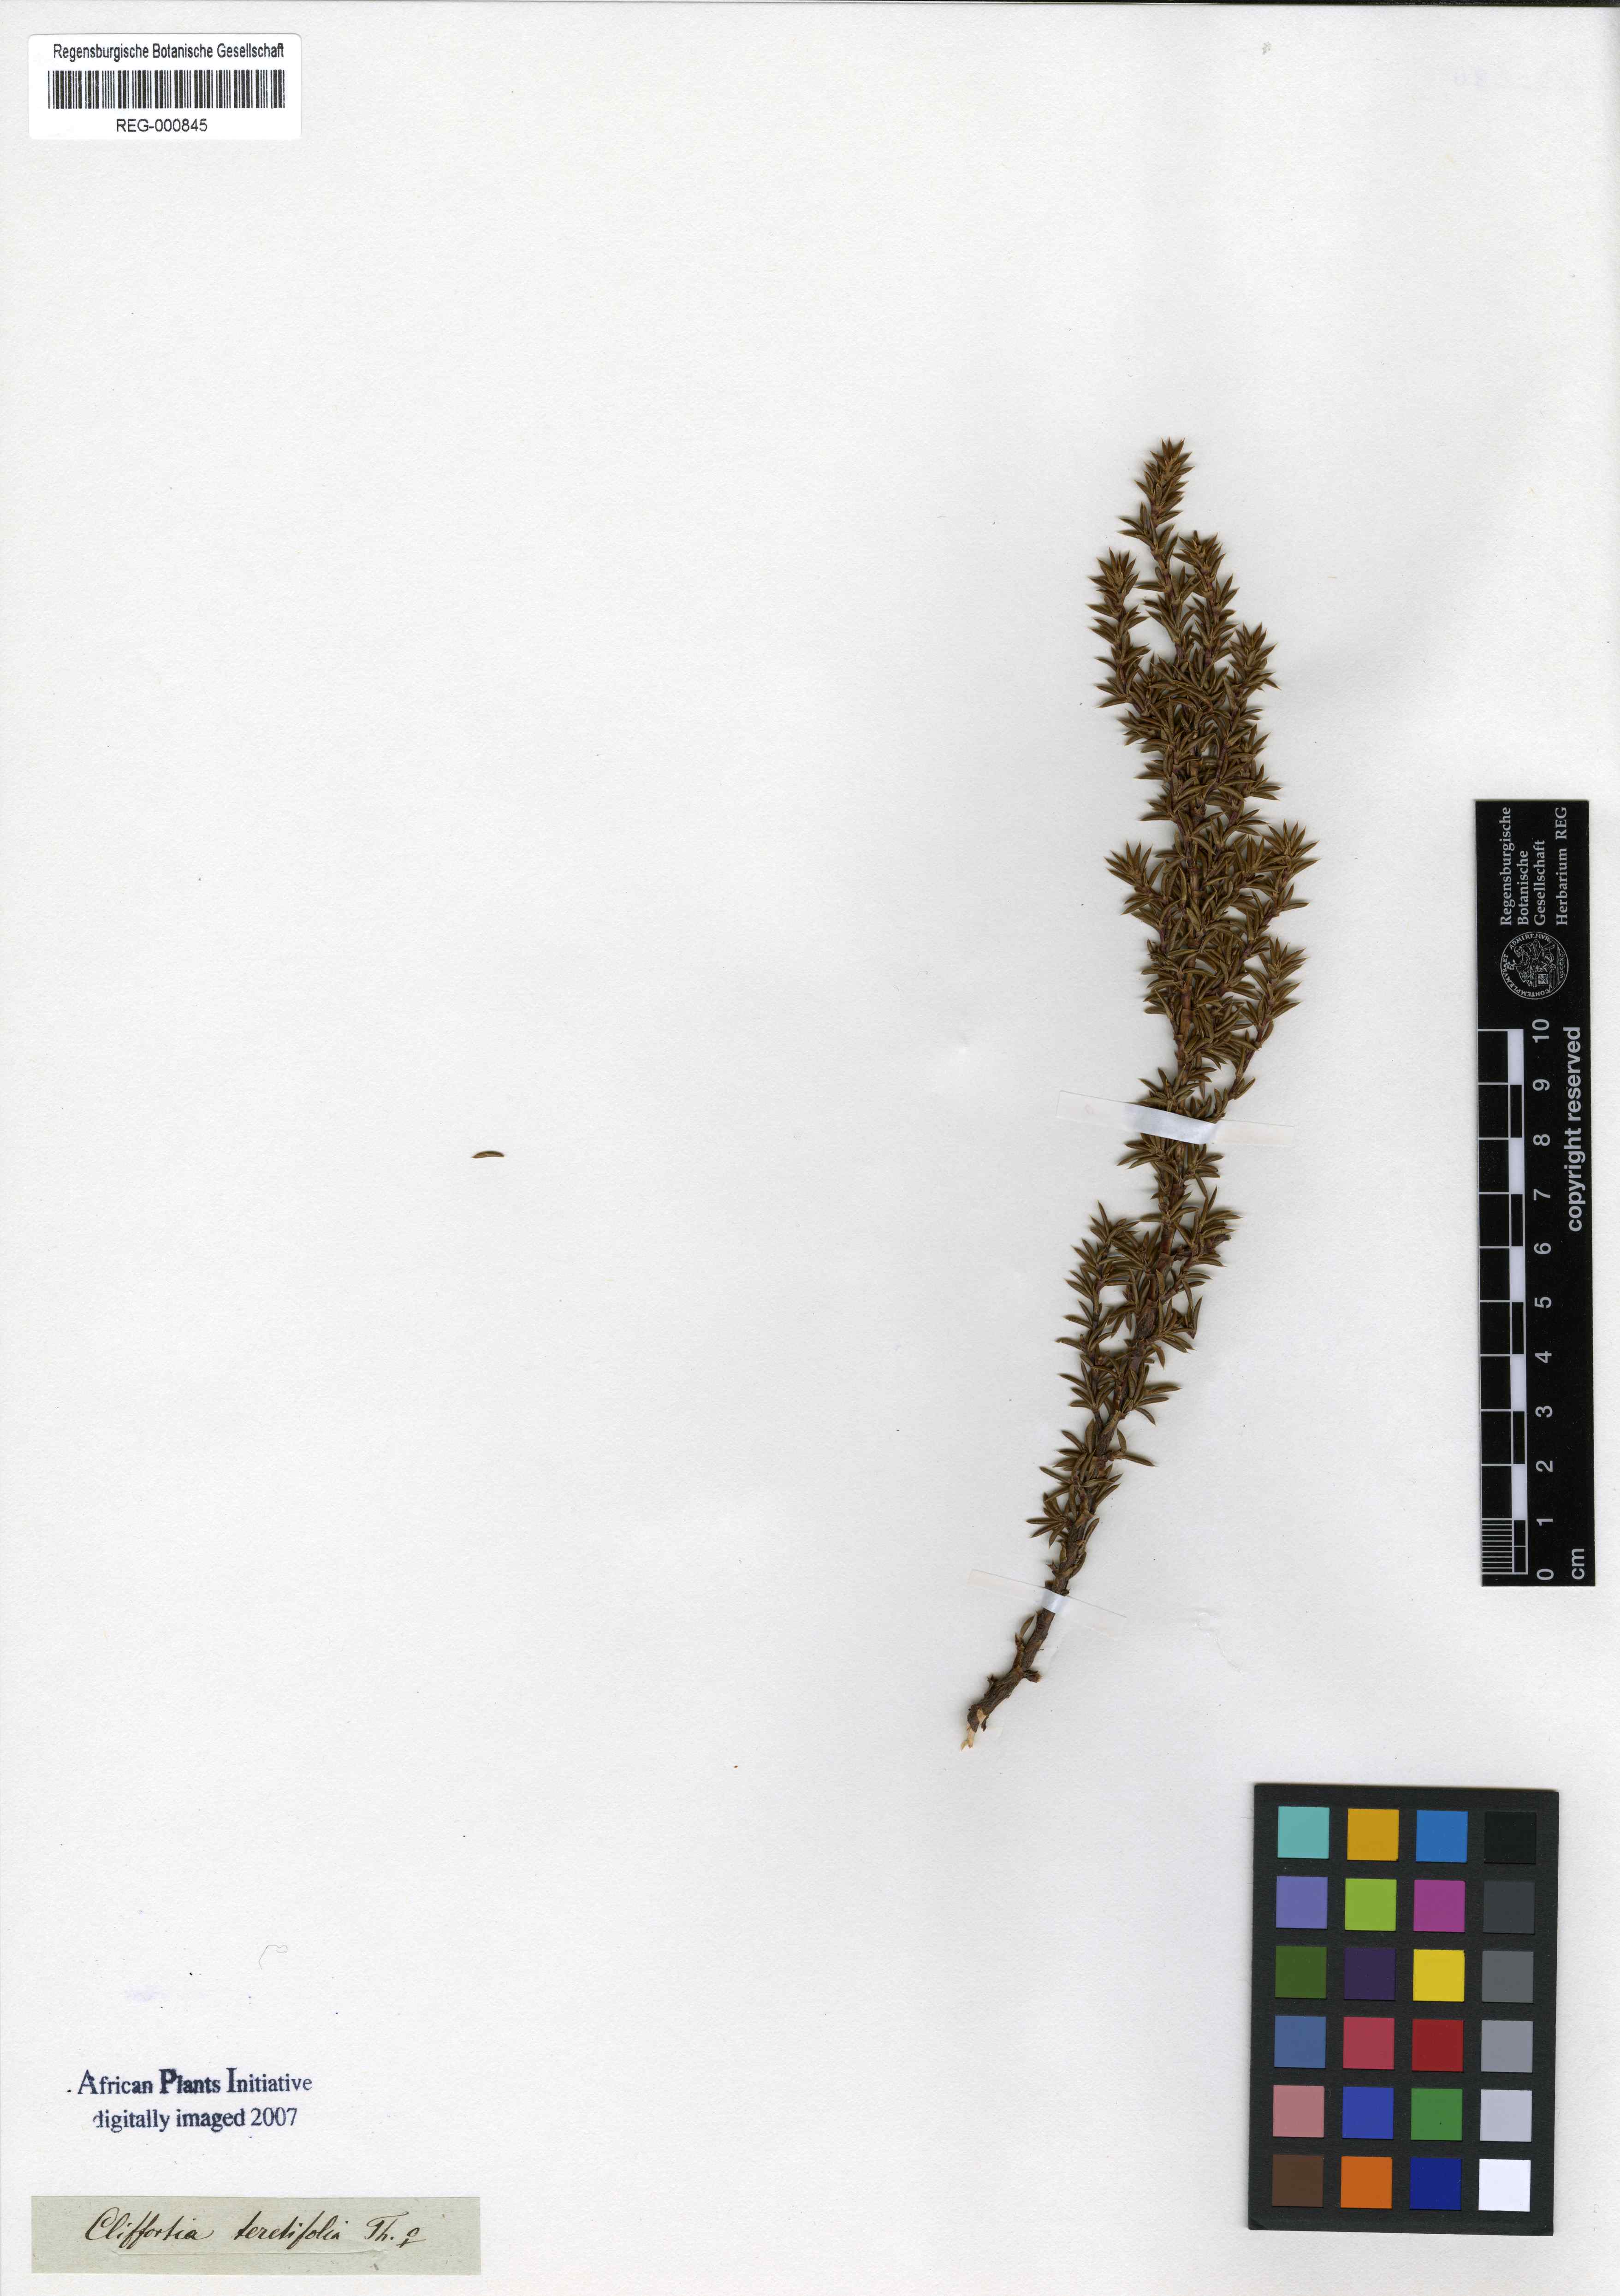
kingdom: Plantae
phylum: Tracheophyta
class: Magnoliopsida
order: Rosales
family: Rosaceae
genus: Cliffortia
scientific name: Cliffortia teretifolia
